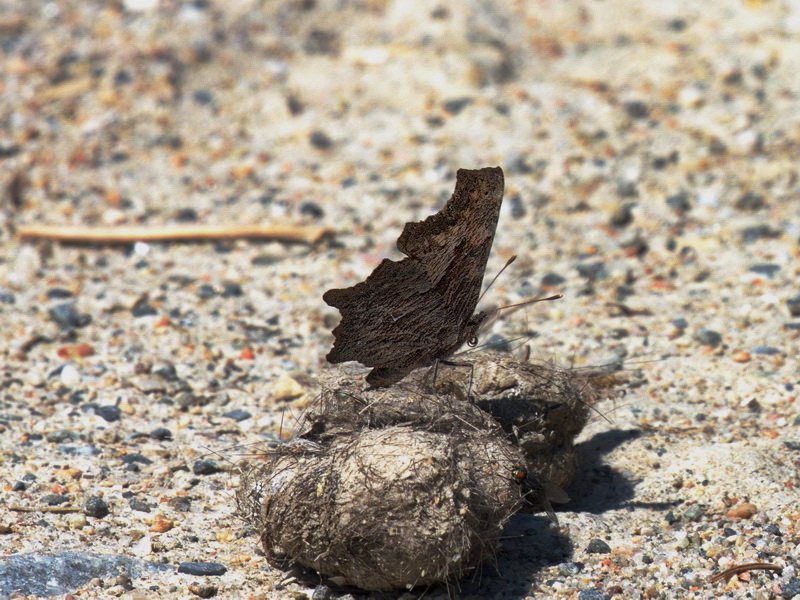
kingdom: Animalia
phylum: Arthropoda
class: Insecta
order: Lepidoptera
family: Nymphalidae
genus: Polygonia
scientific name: Polygonia progne
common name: Gray Comma
